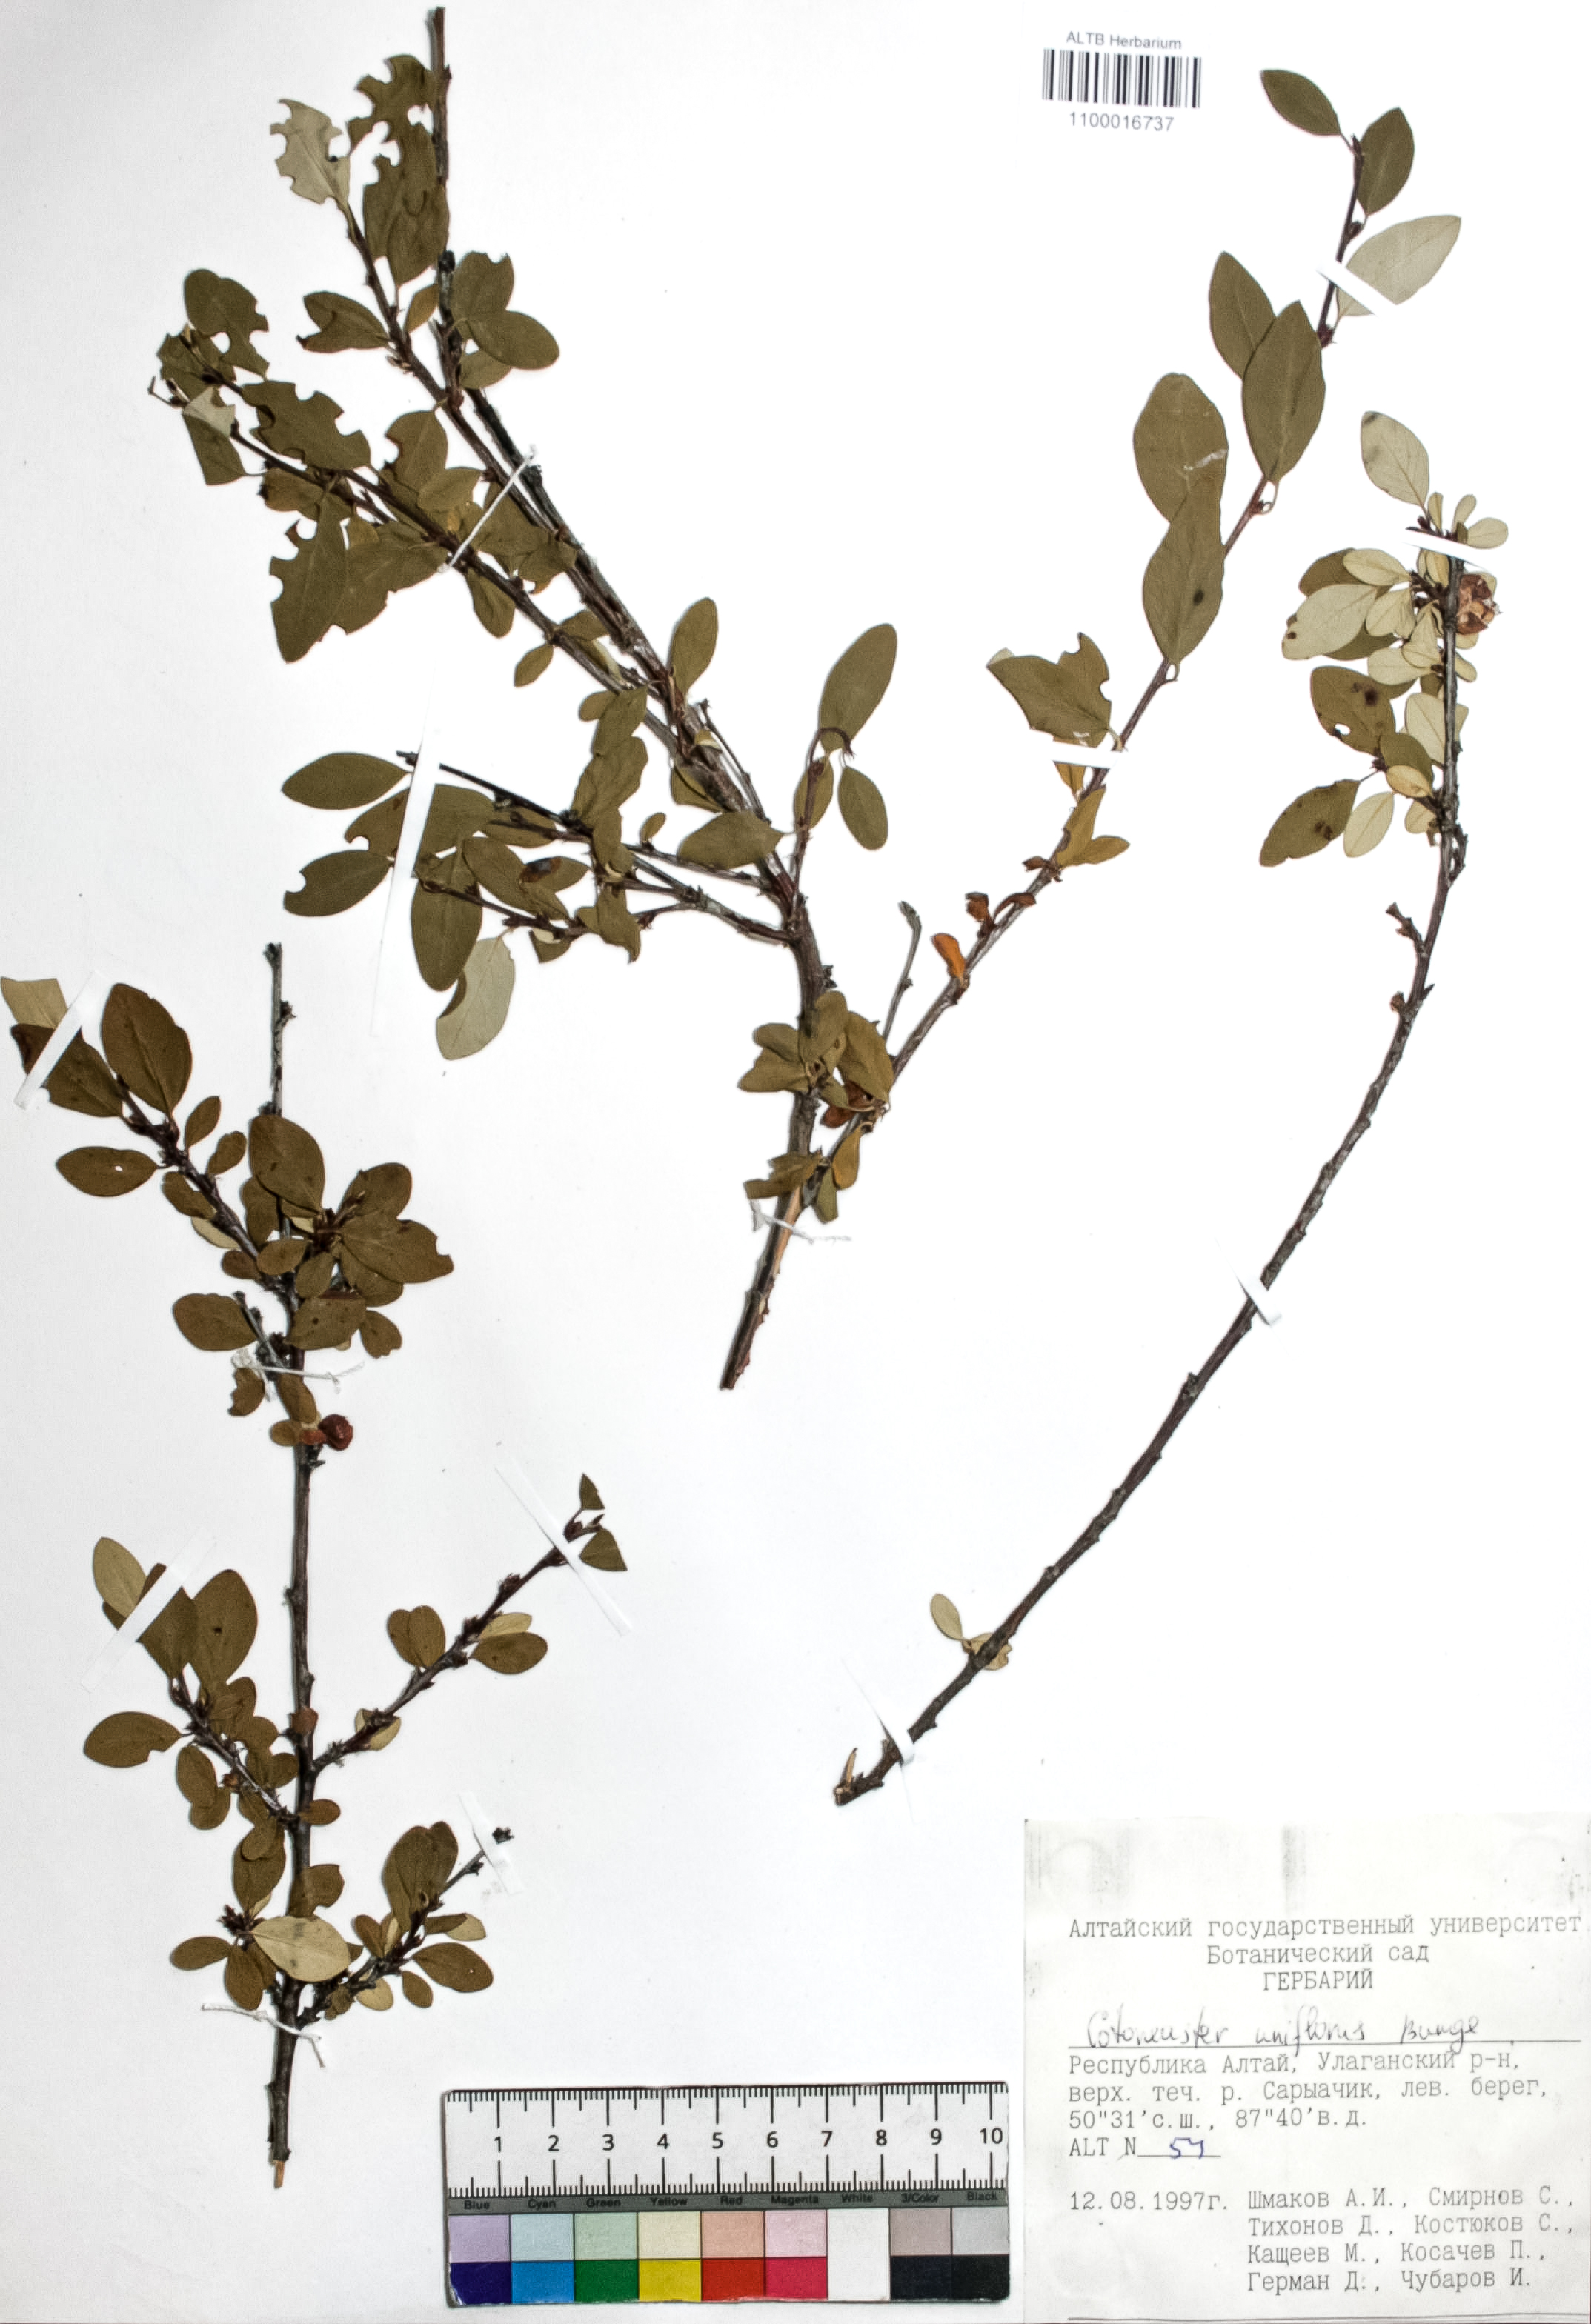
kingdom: Plantae
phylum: Tracheophyta
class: Magnoliopsida
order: Rosales
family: Rosaceae
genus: Cotoneaster
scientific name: Cotoneaster uniflorus
